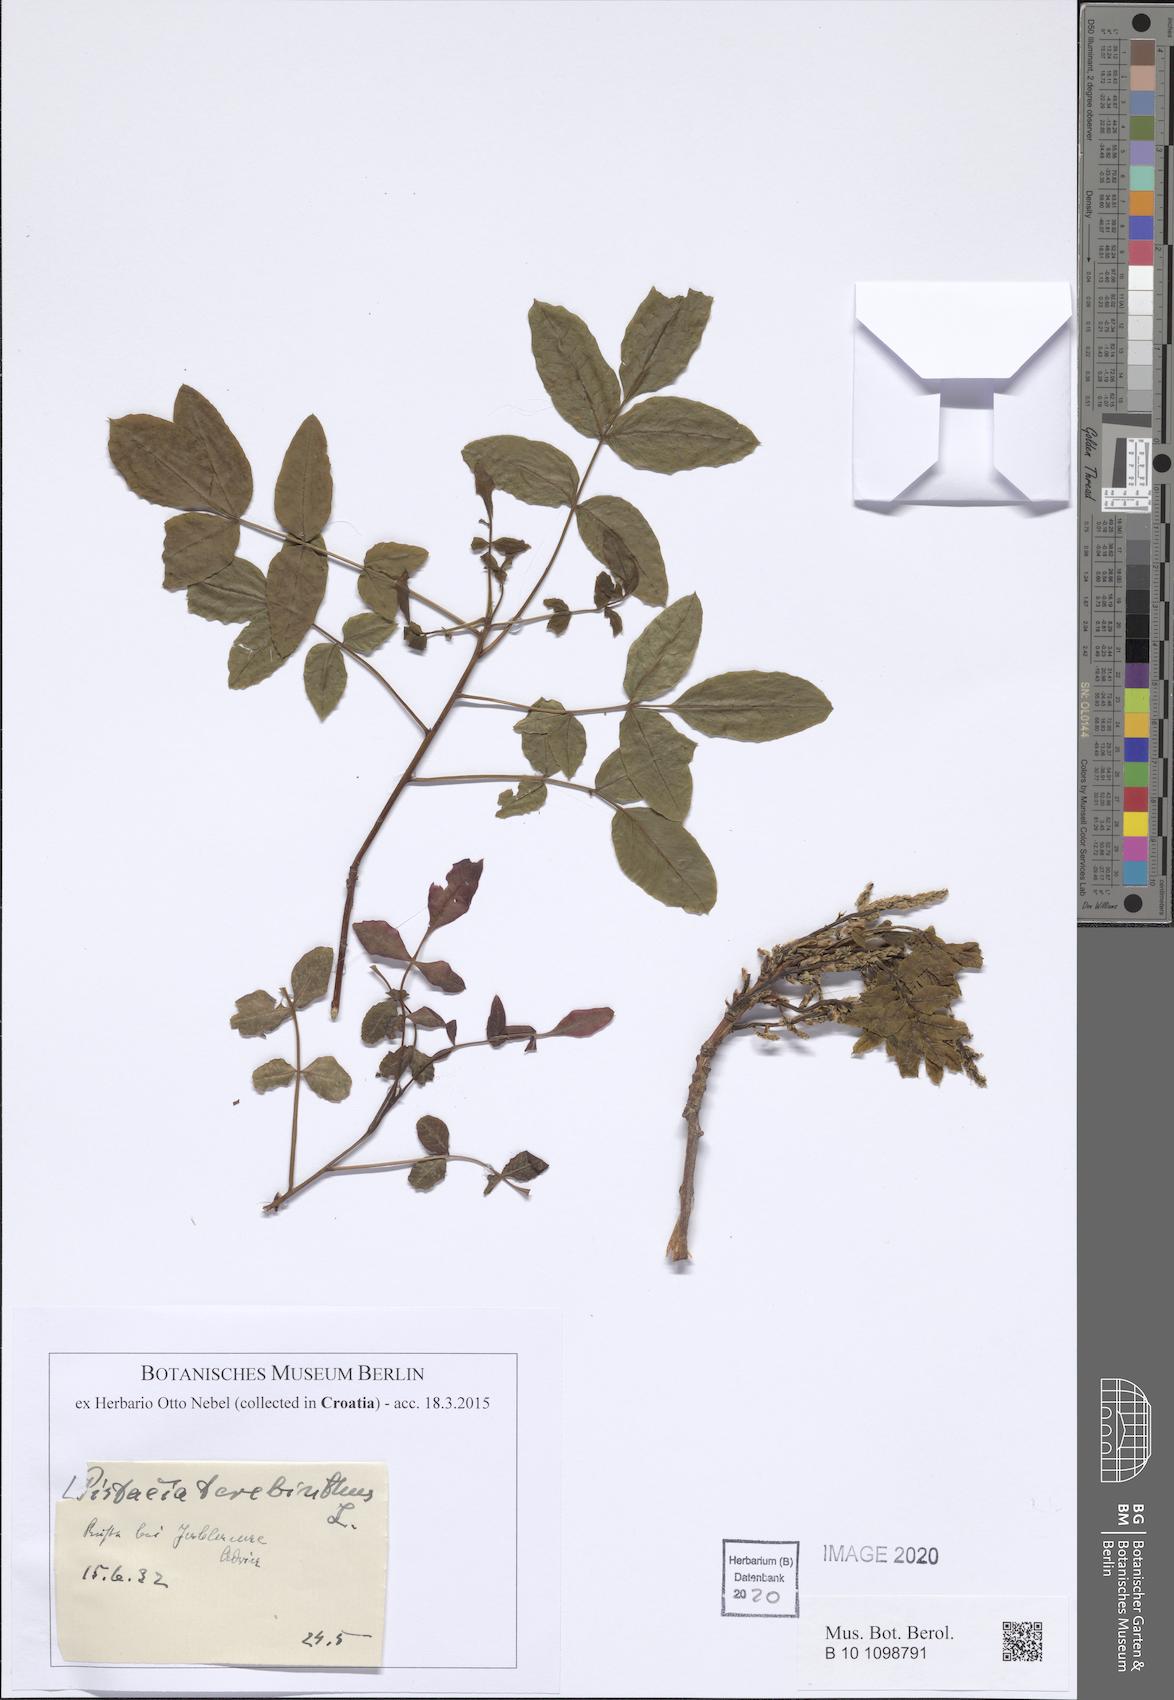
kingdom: Plantae
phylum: Tracheophyta
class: Magnoliopsida
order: Sapindales
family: Anacardiaceae
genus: Pistacia
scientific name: Pistacia terebinthus
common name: Terebinth
